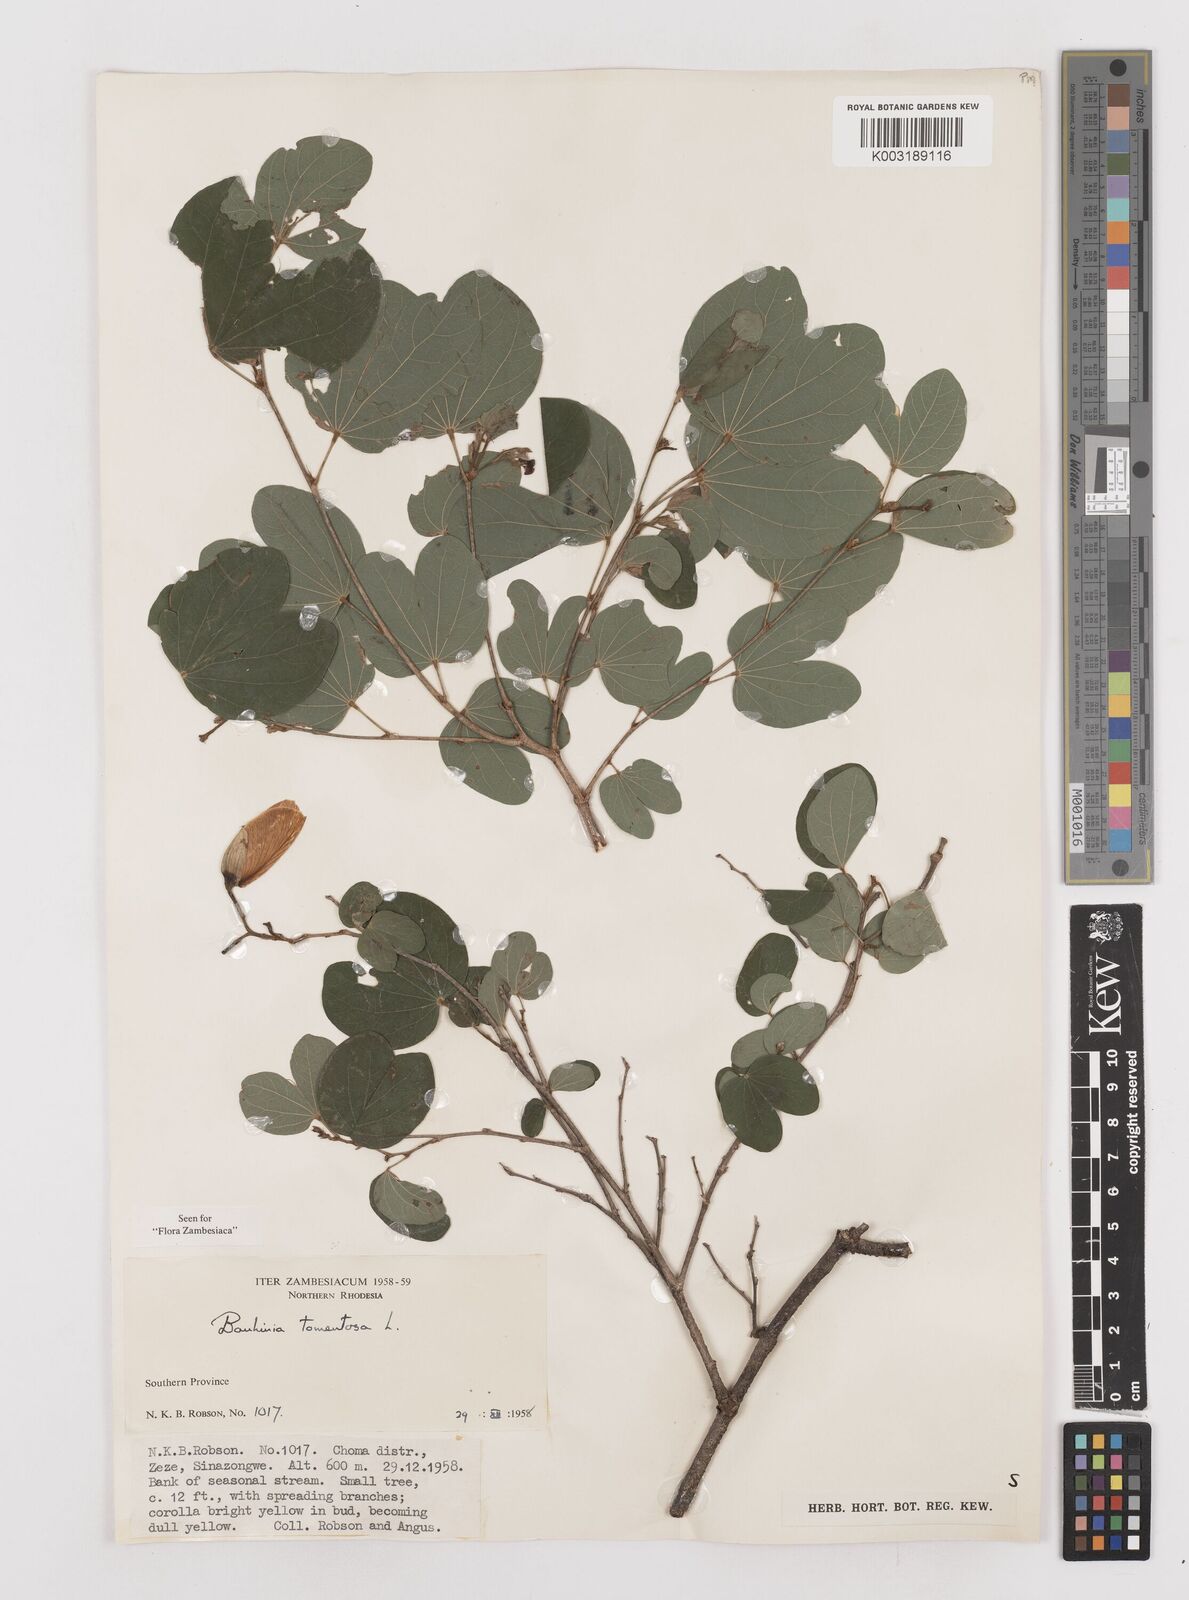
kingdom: Plantae
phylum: Tracheophyta
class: Magnoliopsida
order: Fabales
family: Fabaceae
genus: Bauhinia
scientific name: Bauhinia tomentosa
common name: Bell bauhinia
